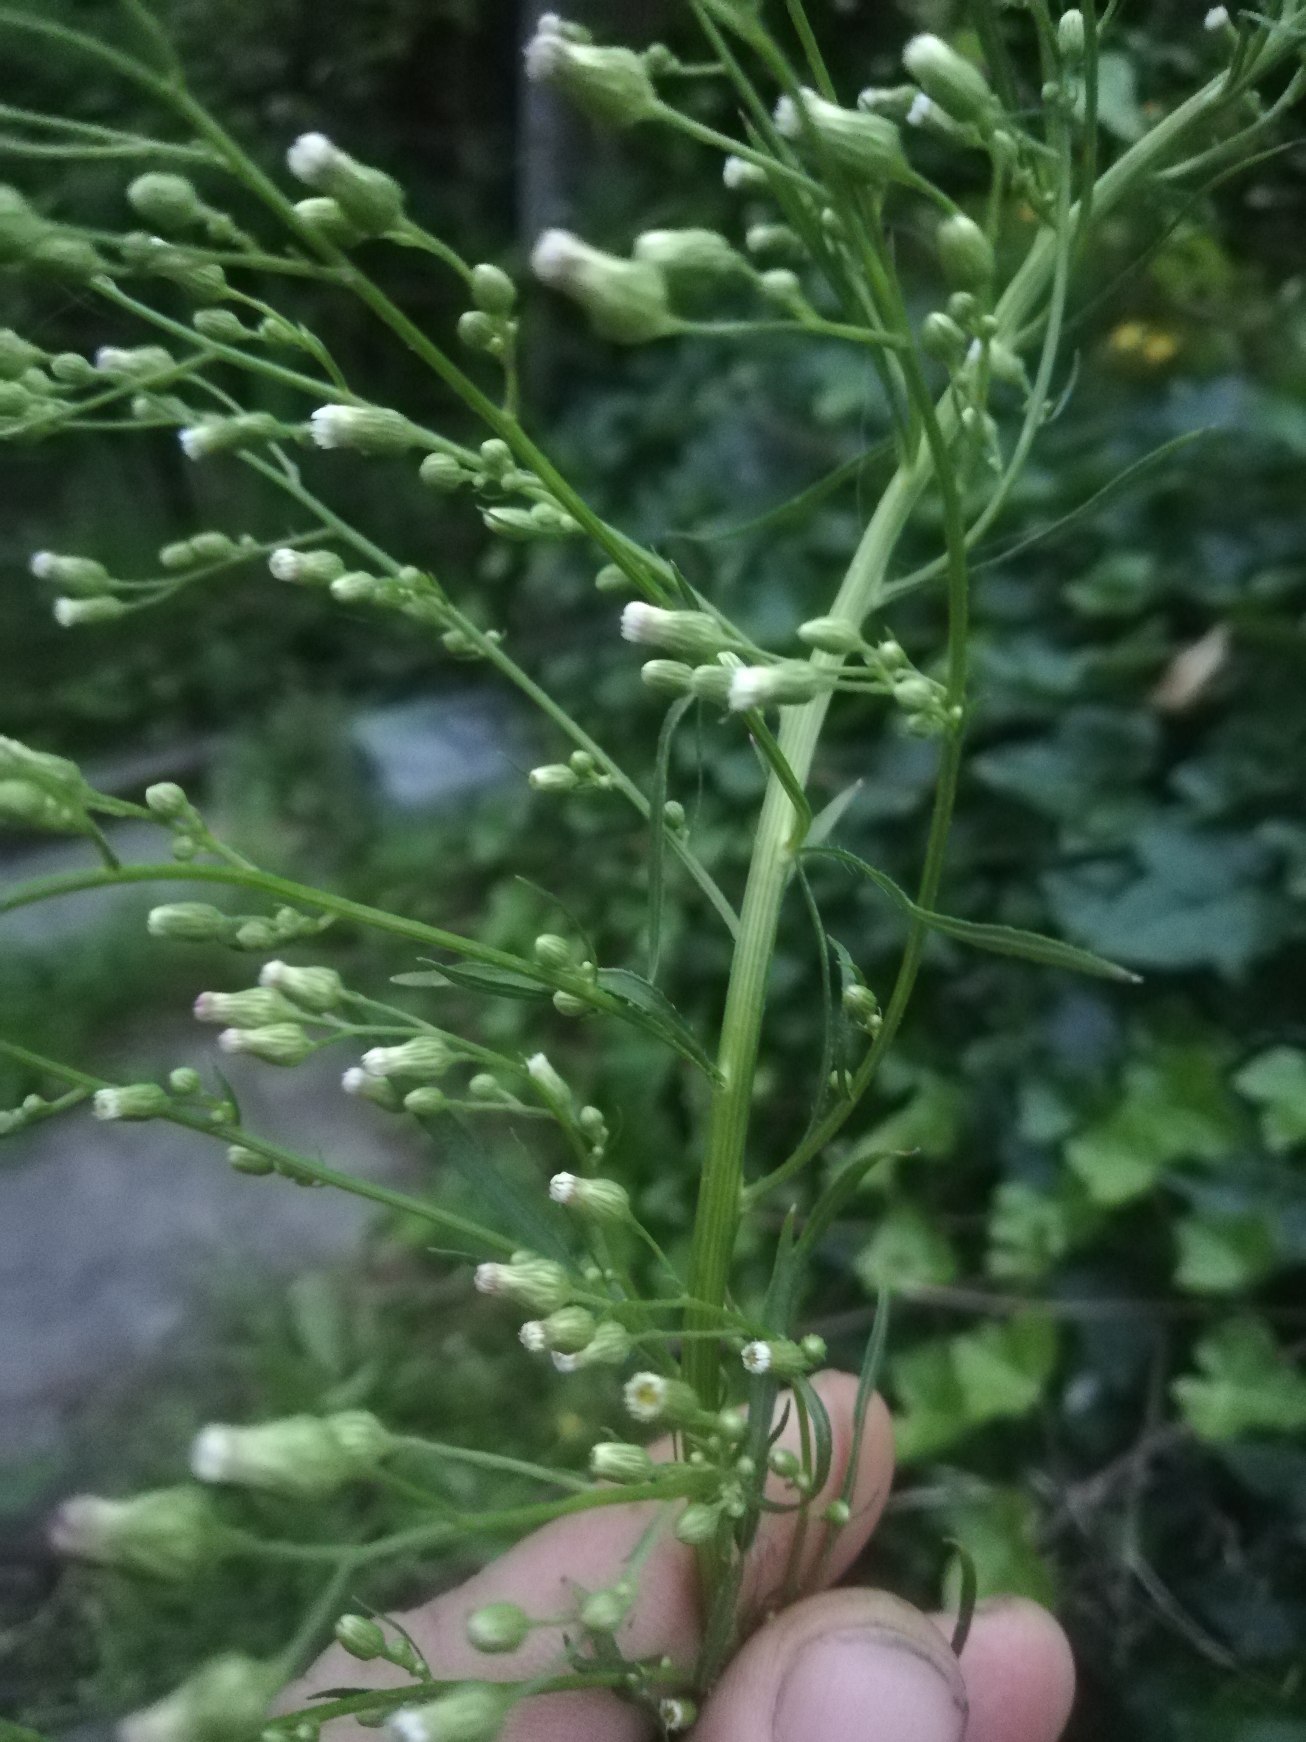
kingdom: Plantae
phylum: Tracheophyta
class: Magnoliopsida
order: Asterales
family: Asteraceae
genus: Erigeron
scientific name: Erigeron canadensis
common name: Kanadisk bakkestjerne
